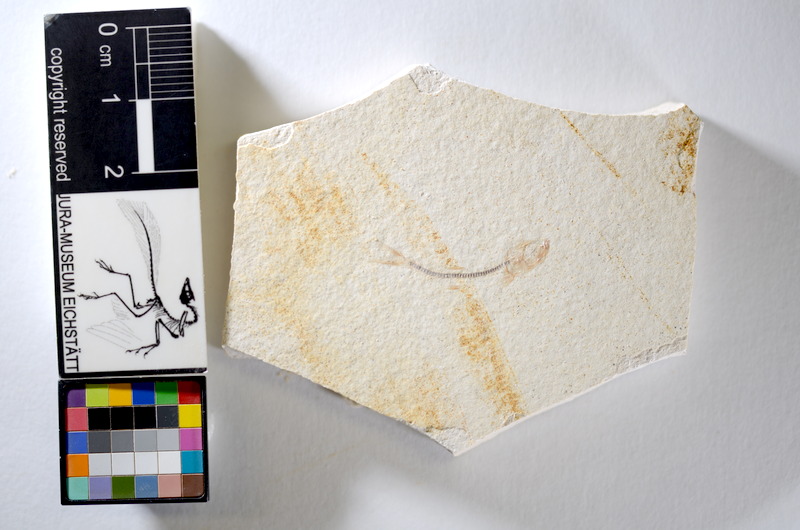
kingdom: Animalia
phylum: Chordata
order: Salmoniformes
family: Orthogonikleithridae
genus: Orthogonikleithrus
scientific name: Orthogonikleithrus hoelli
